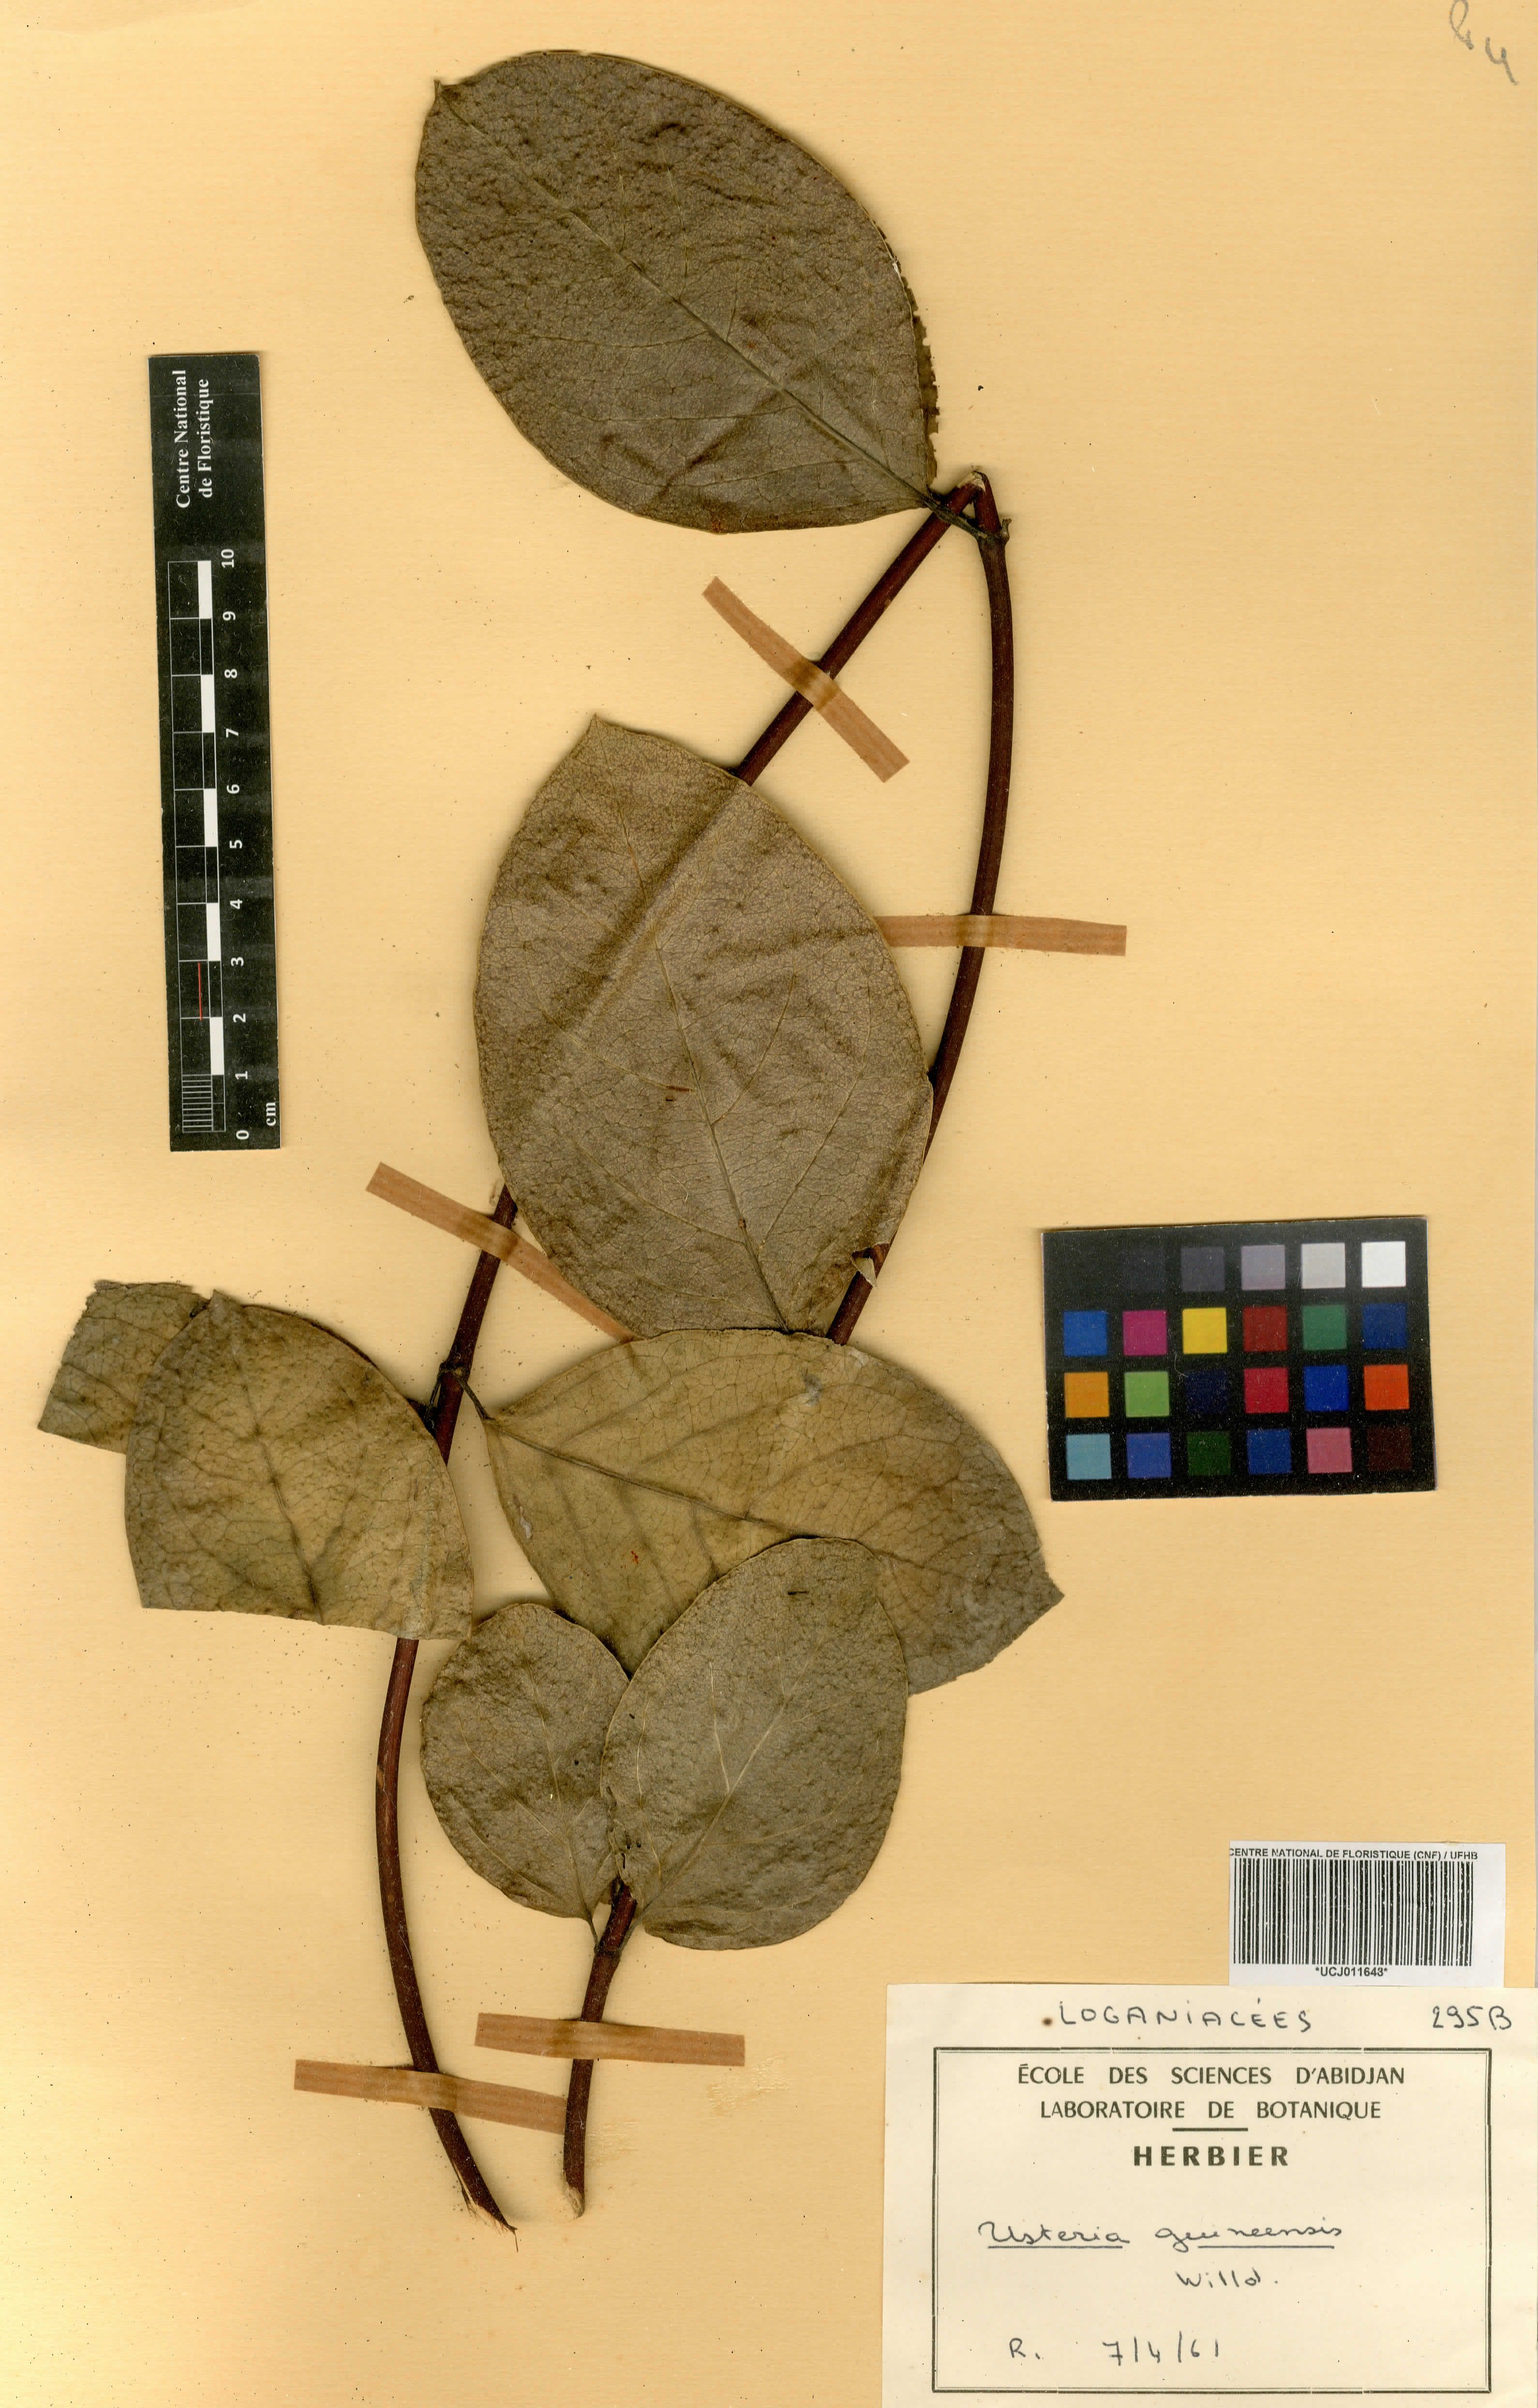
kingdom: Plantae
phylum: Tracheophyta
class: Magnoliopsida
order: Gentianales
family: Loganiaceae
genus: Usteria
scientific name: Usteria guineensis
